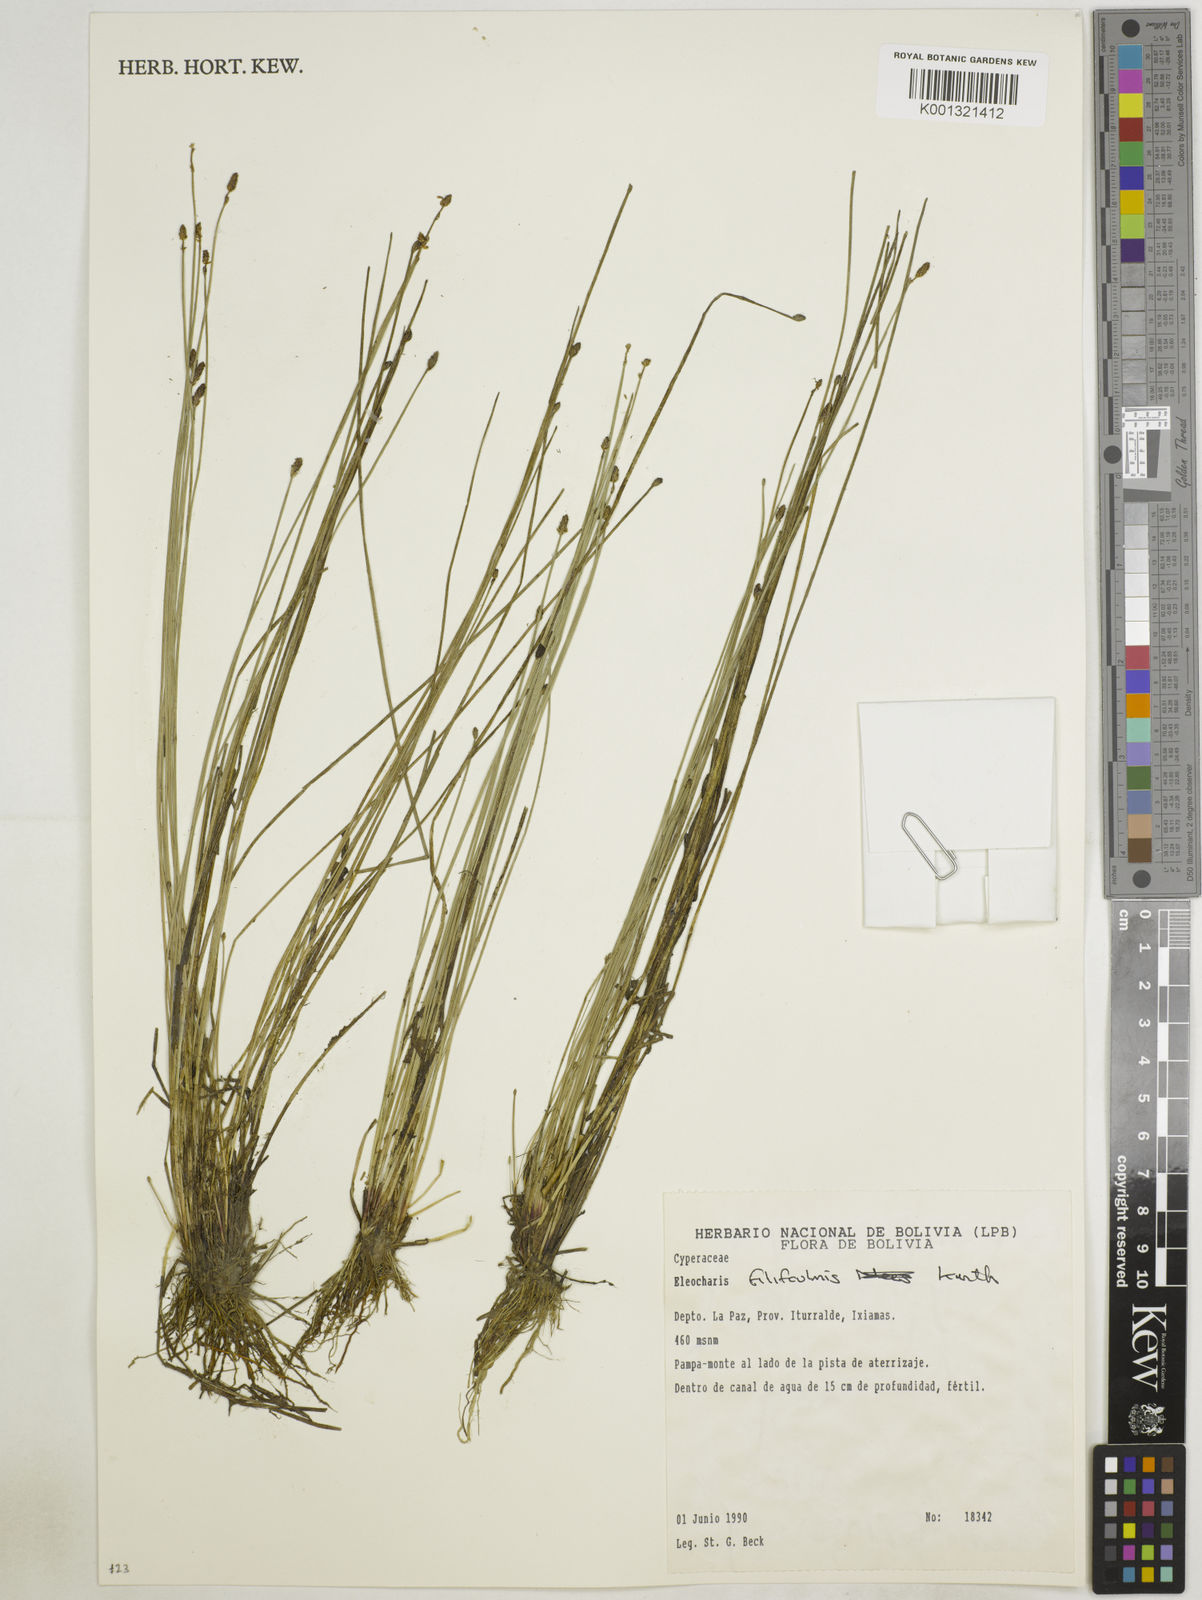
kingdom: Plantae
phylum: Tracheophyta
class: Liliopsida
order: Poales
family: Cyperaceae
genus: Eleocharis
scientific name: Eleocharis filiculmis
